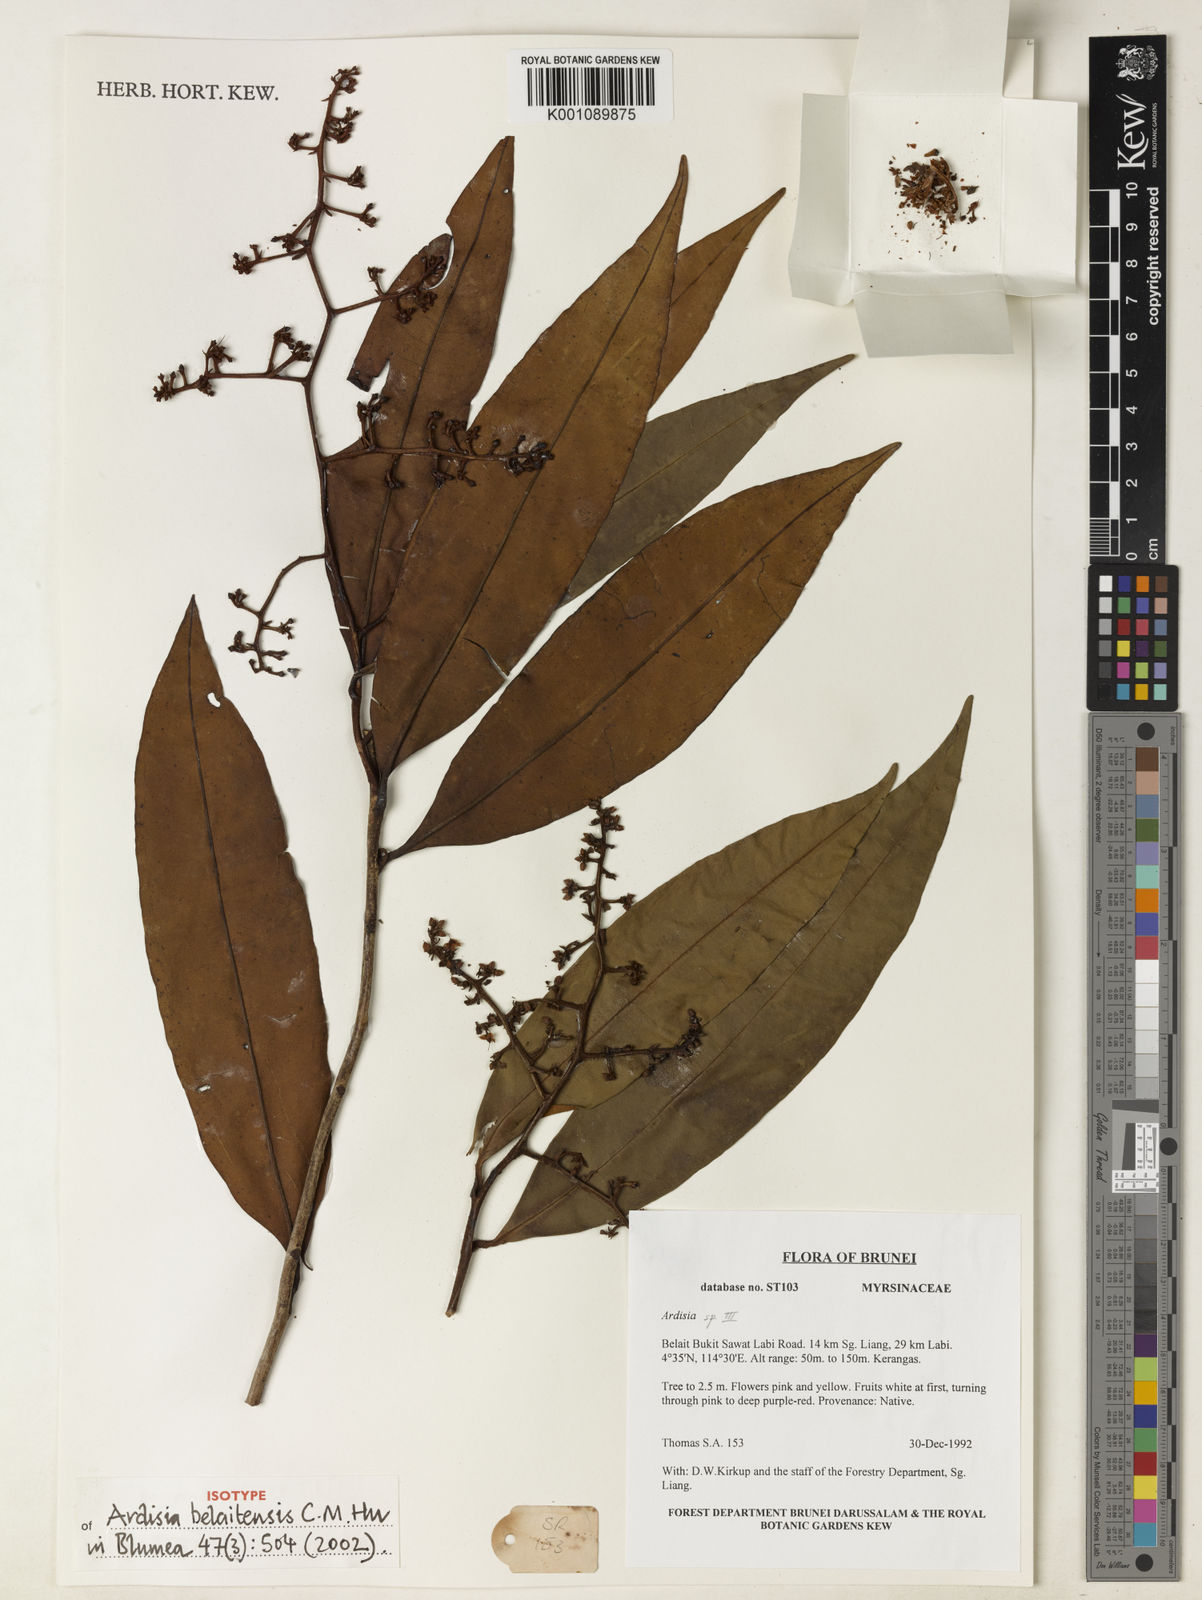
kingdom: Plantae
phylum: Tracheophyta
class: Magnoliopsida
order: Ericales
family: Primulaceae
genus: Ardisia
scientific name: Ardisia belaitensis
